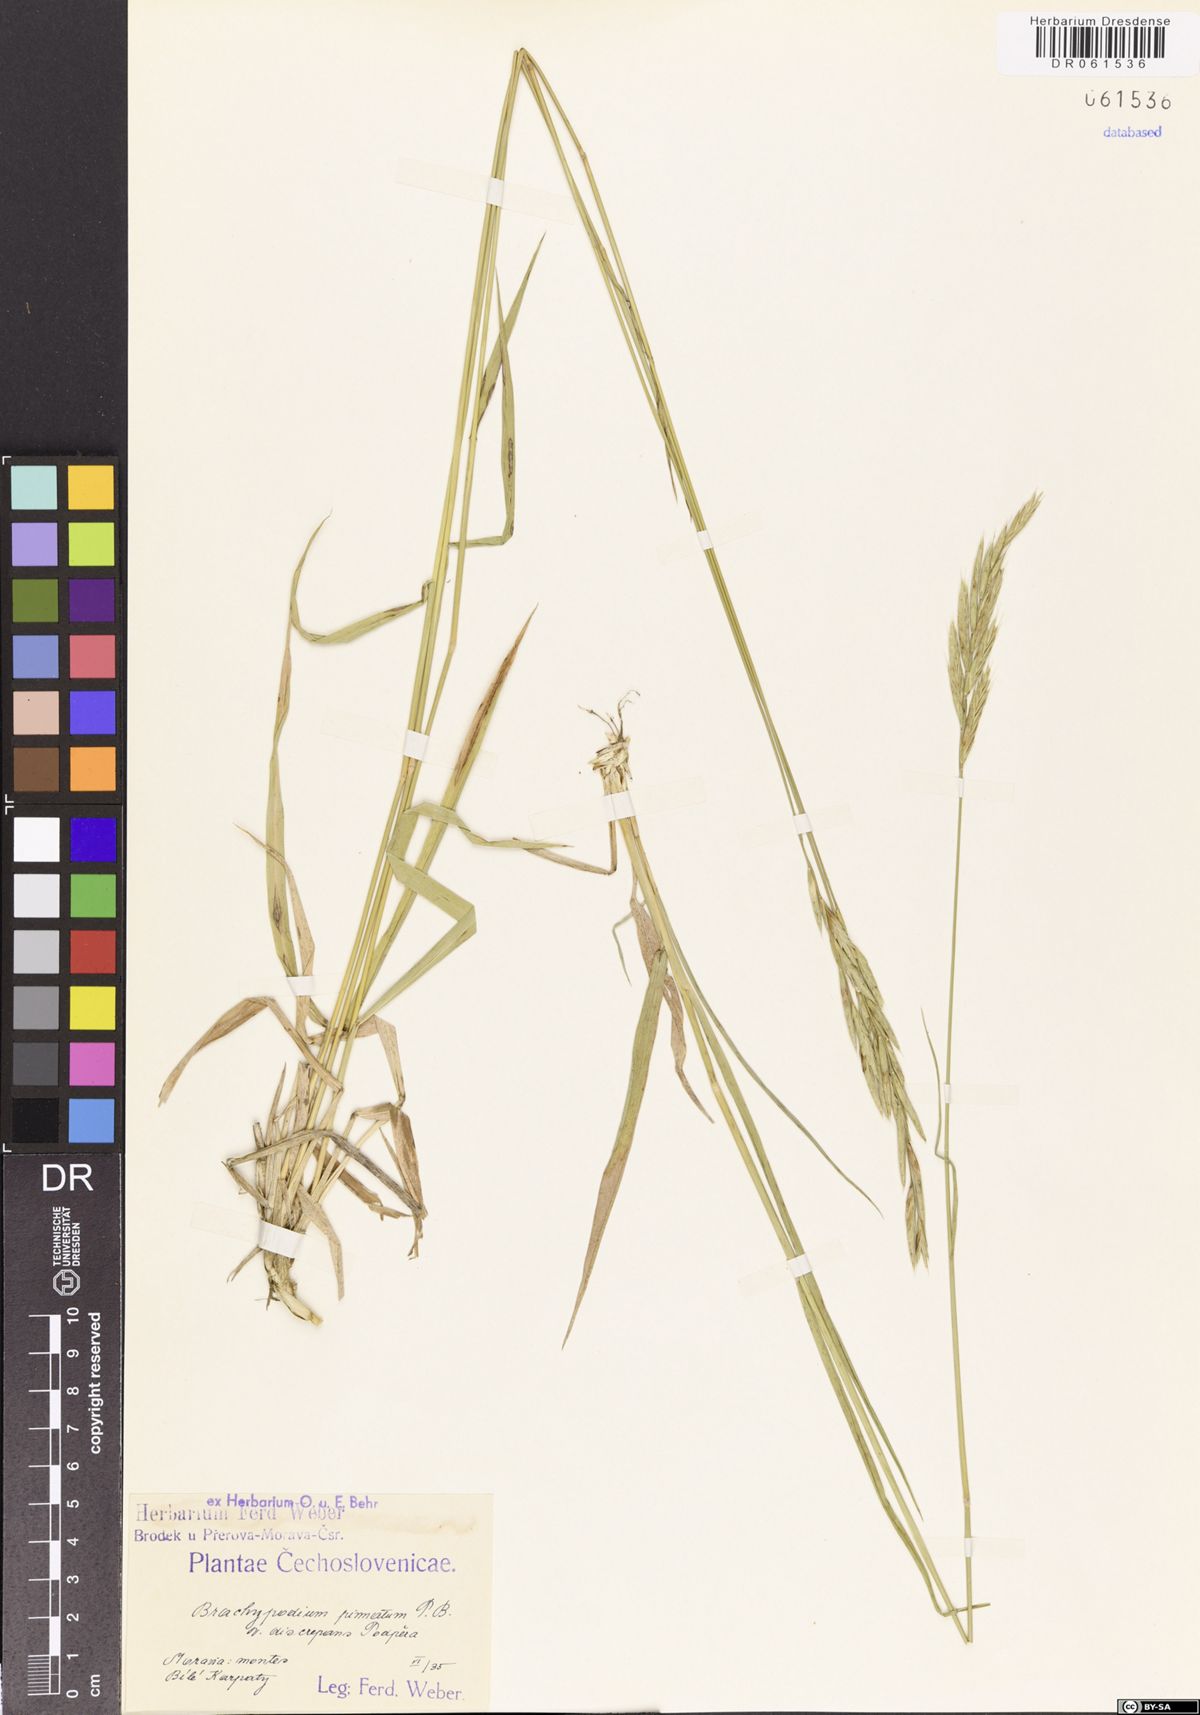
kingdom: Plantae
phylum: Tracheophyta
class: Liliopsida
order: Poales
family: Poaceae
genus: Brachypodium
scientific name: Brachypodium pinnatum
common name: Tor grass
